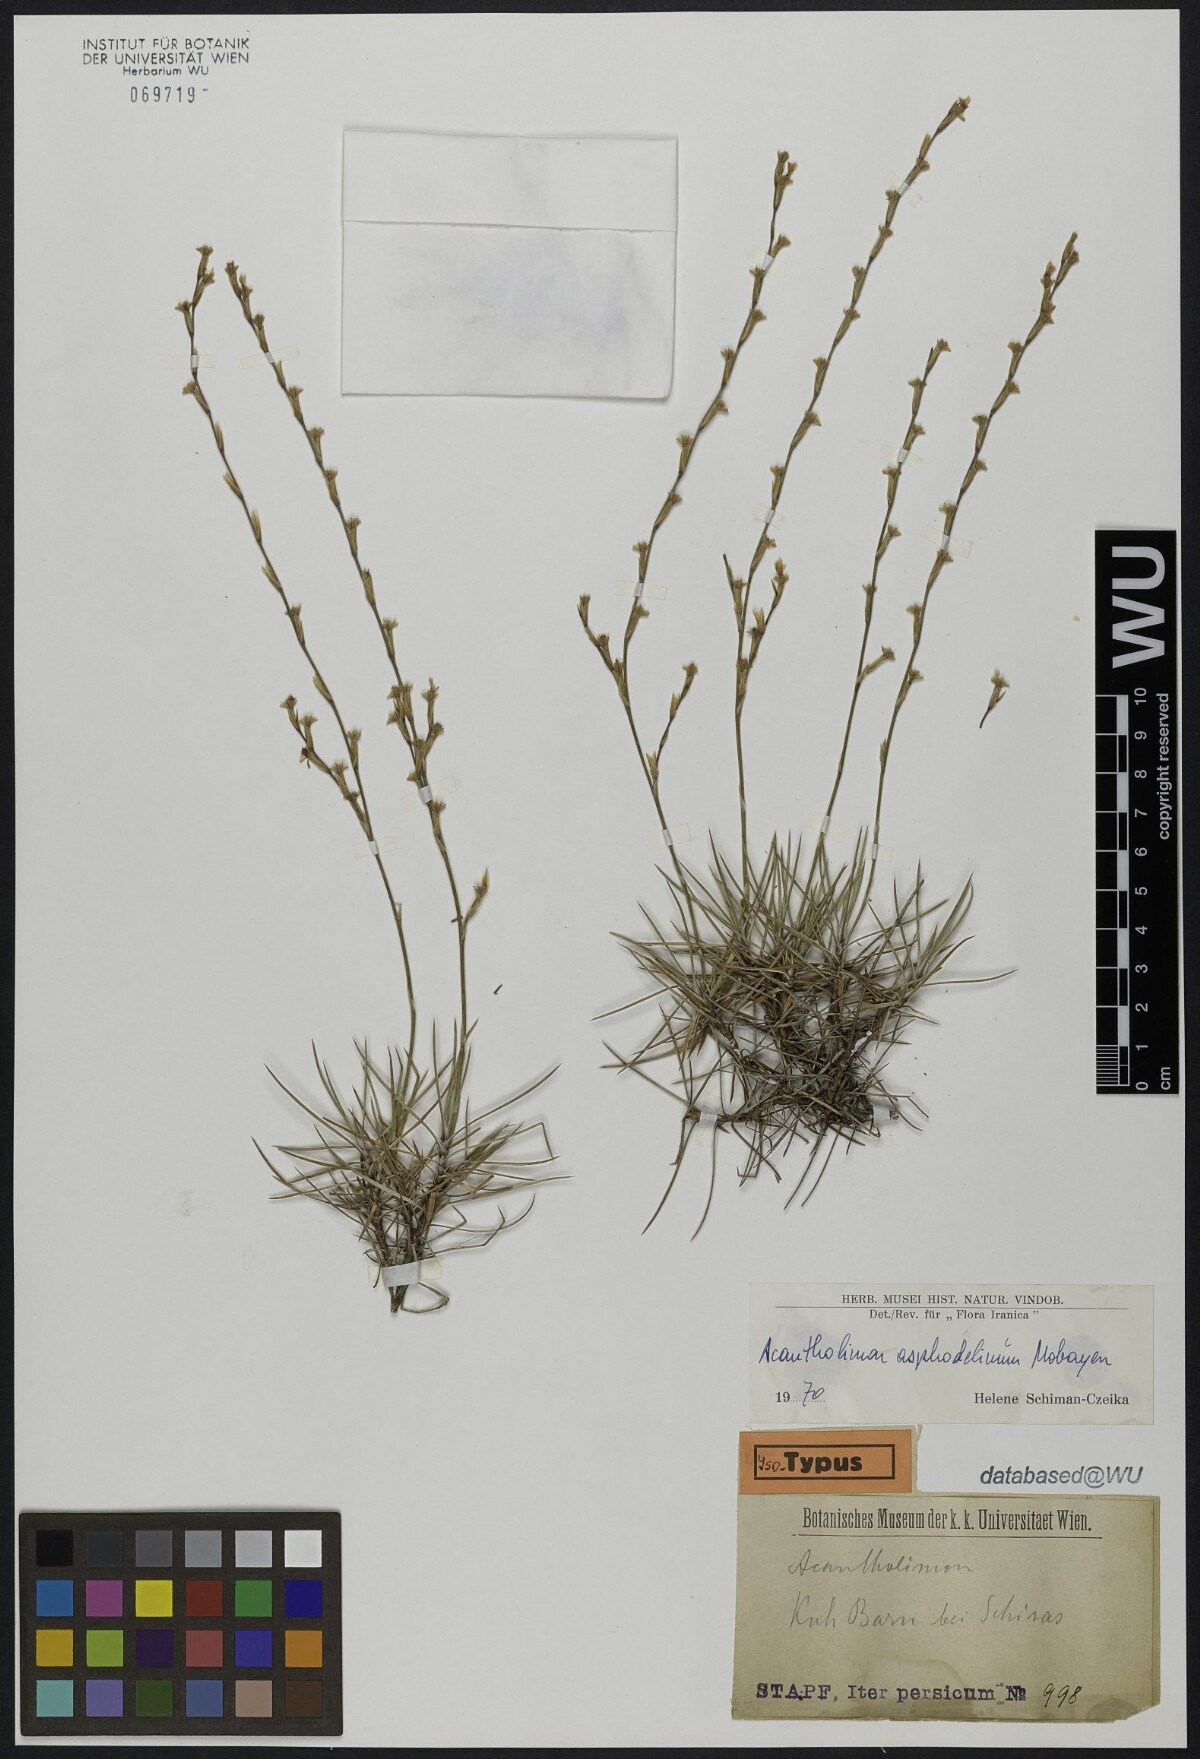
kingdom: Plantae
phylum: Tracheophyta
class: Magnoliopsida
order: Caryophyllales
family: Plumbaginaceae
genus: Acantholimon
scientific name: Acantholimon asphodelinum
